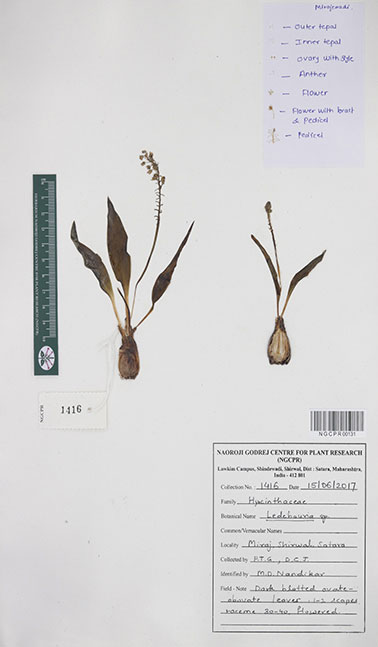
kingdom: Plantae
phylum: Tracheophyta
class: Liliopsida
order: Asparagales
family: Asparagaceae
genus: Ledebouria
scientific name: Ledebouria
